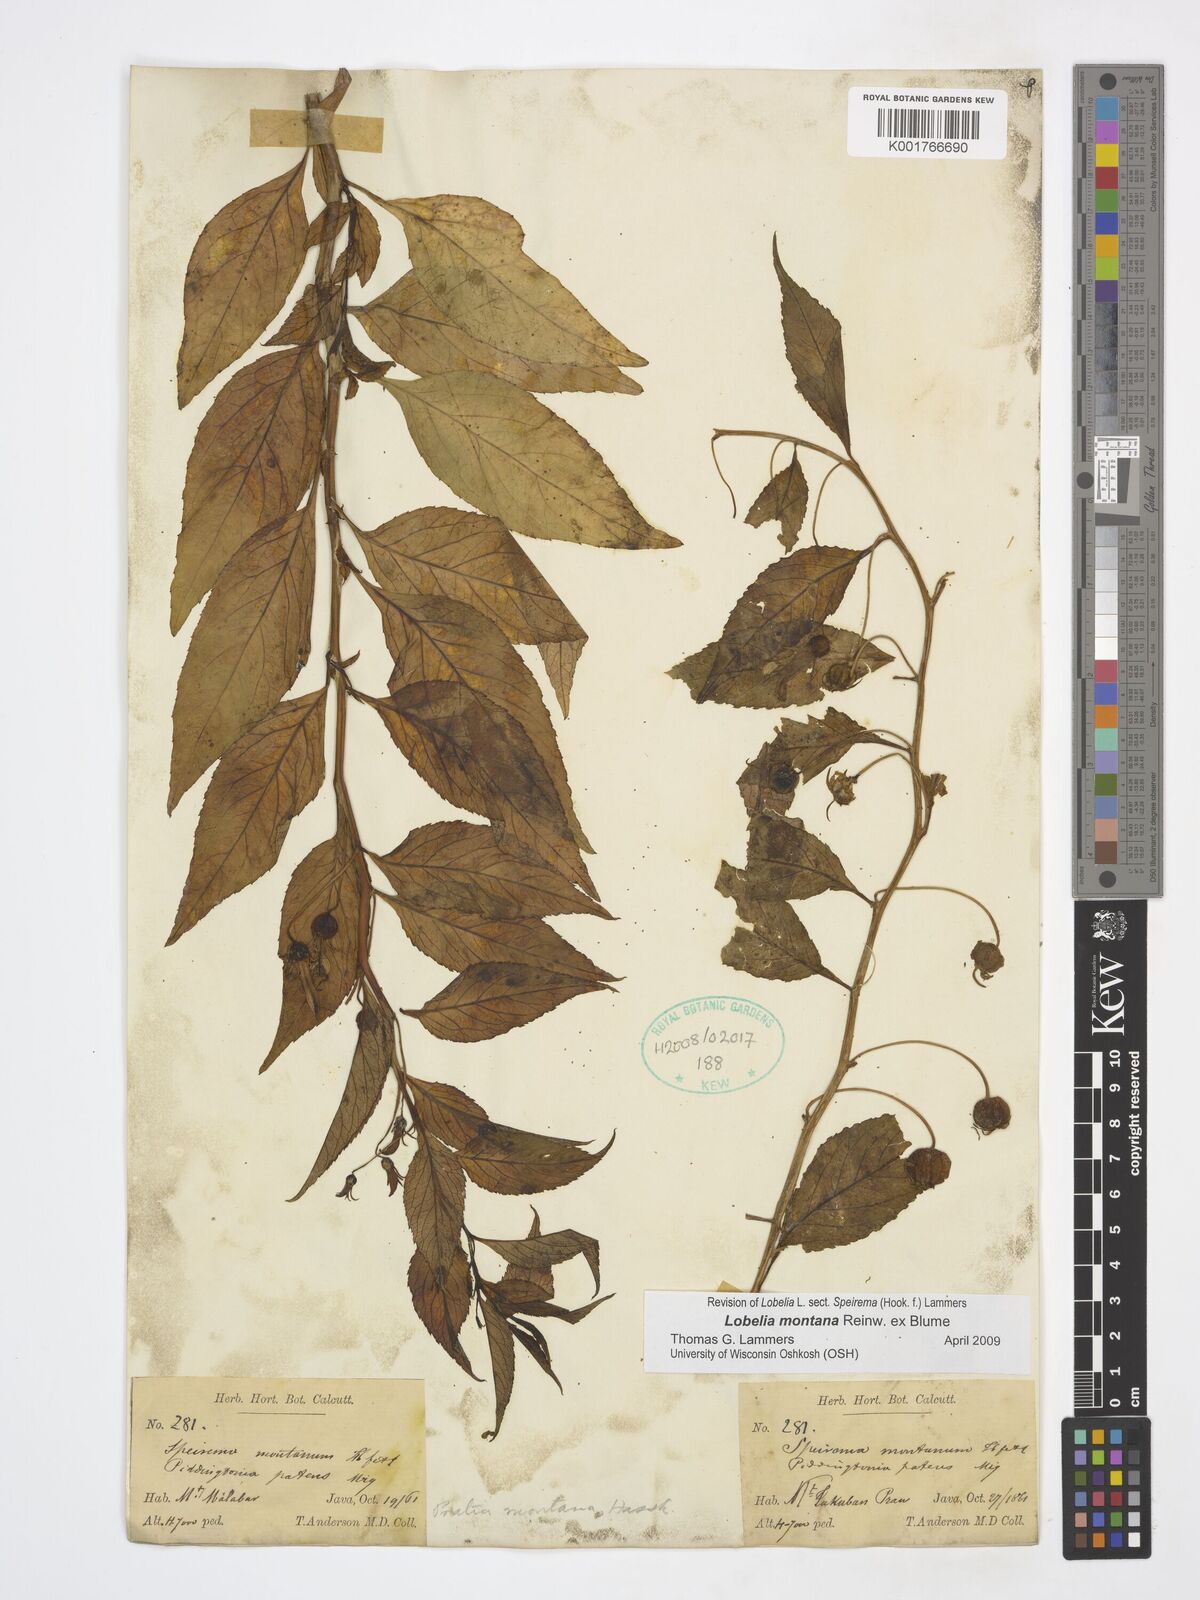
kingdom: Plantae
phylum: Tracheophyta
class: Magnoliopsida
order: Asterales
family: Campanulaceae
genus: Lobelia
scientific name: Lobelia montana
